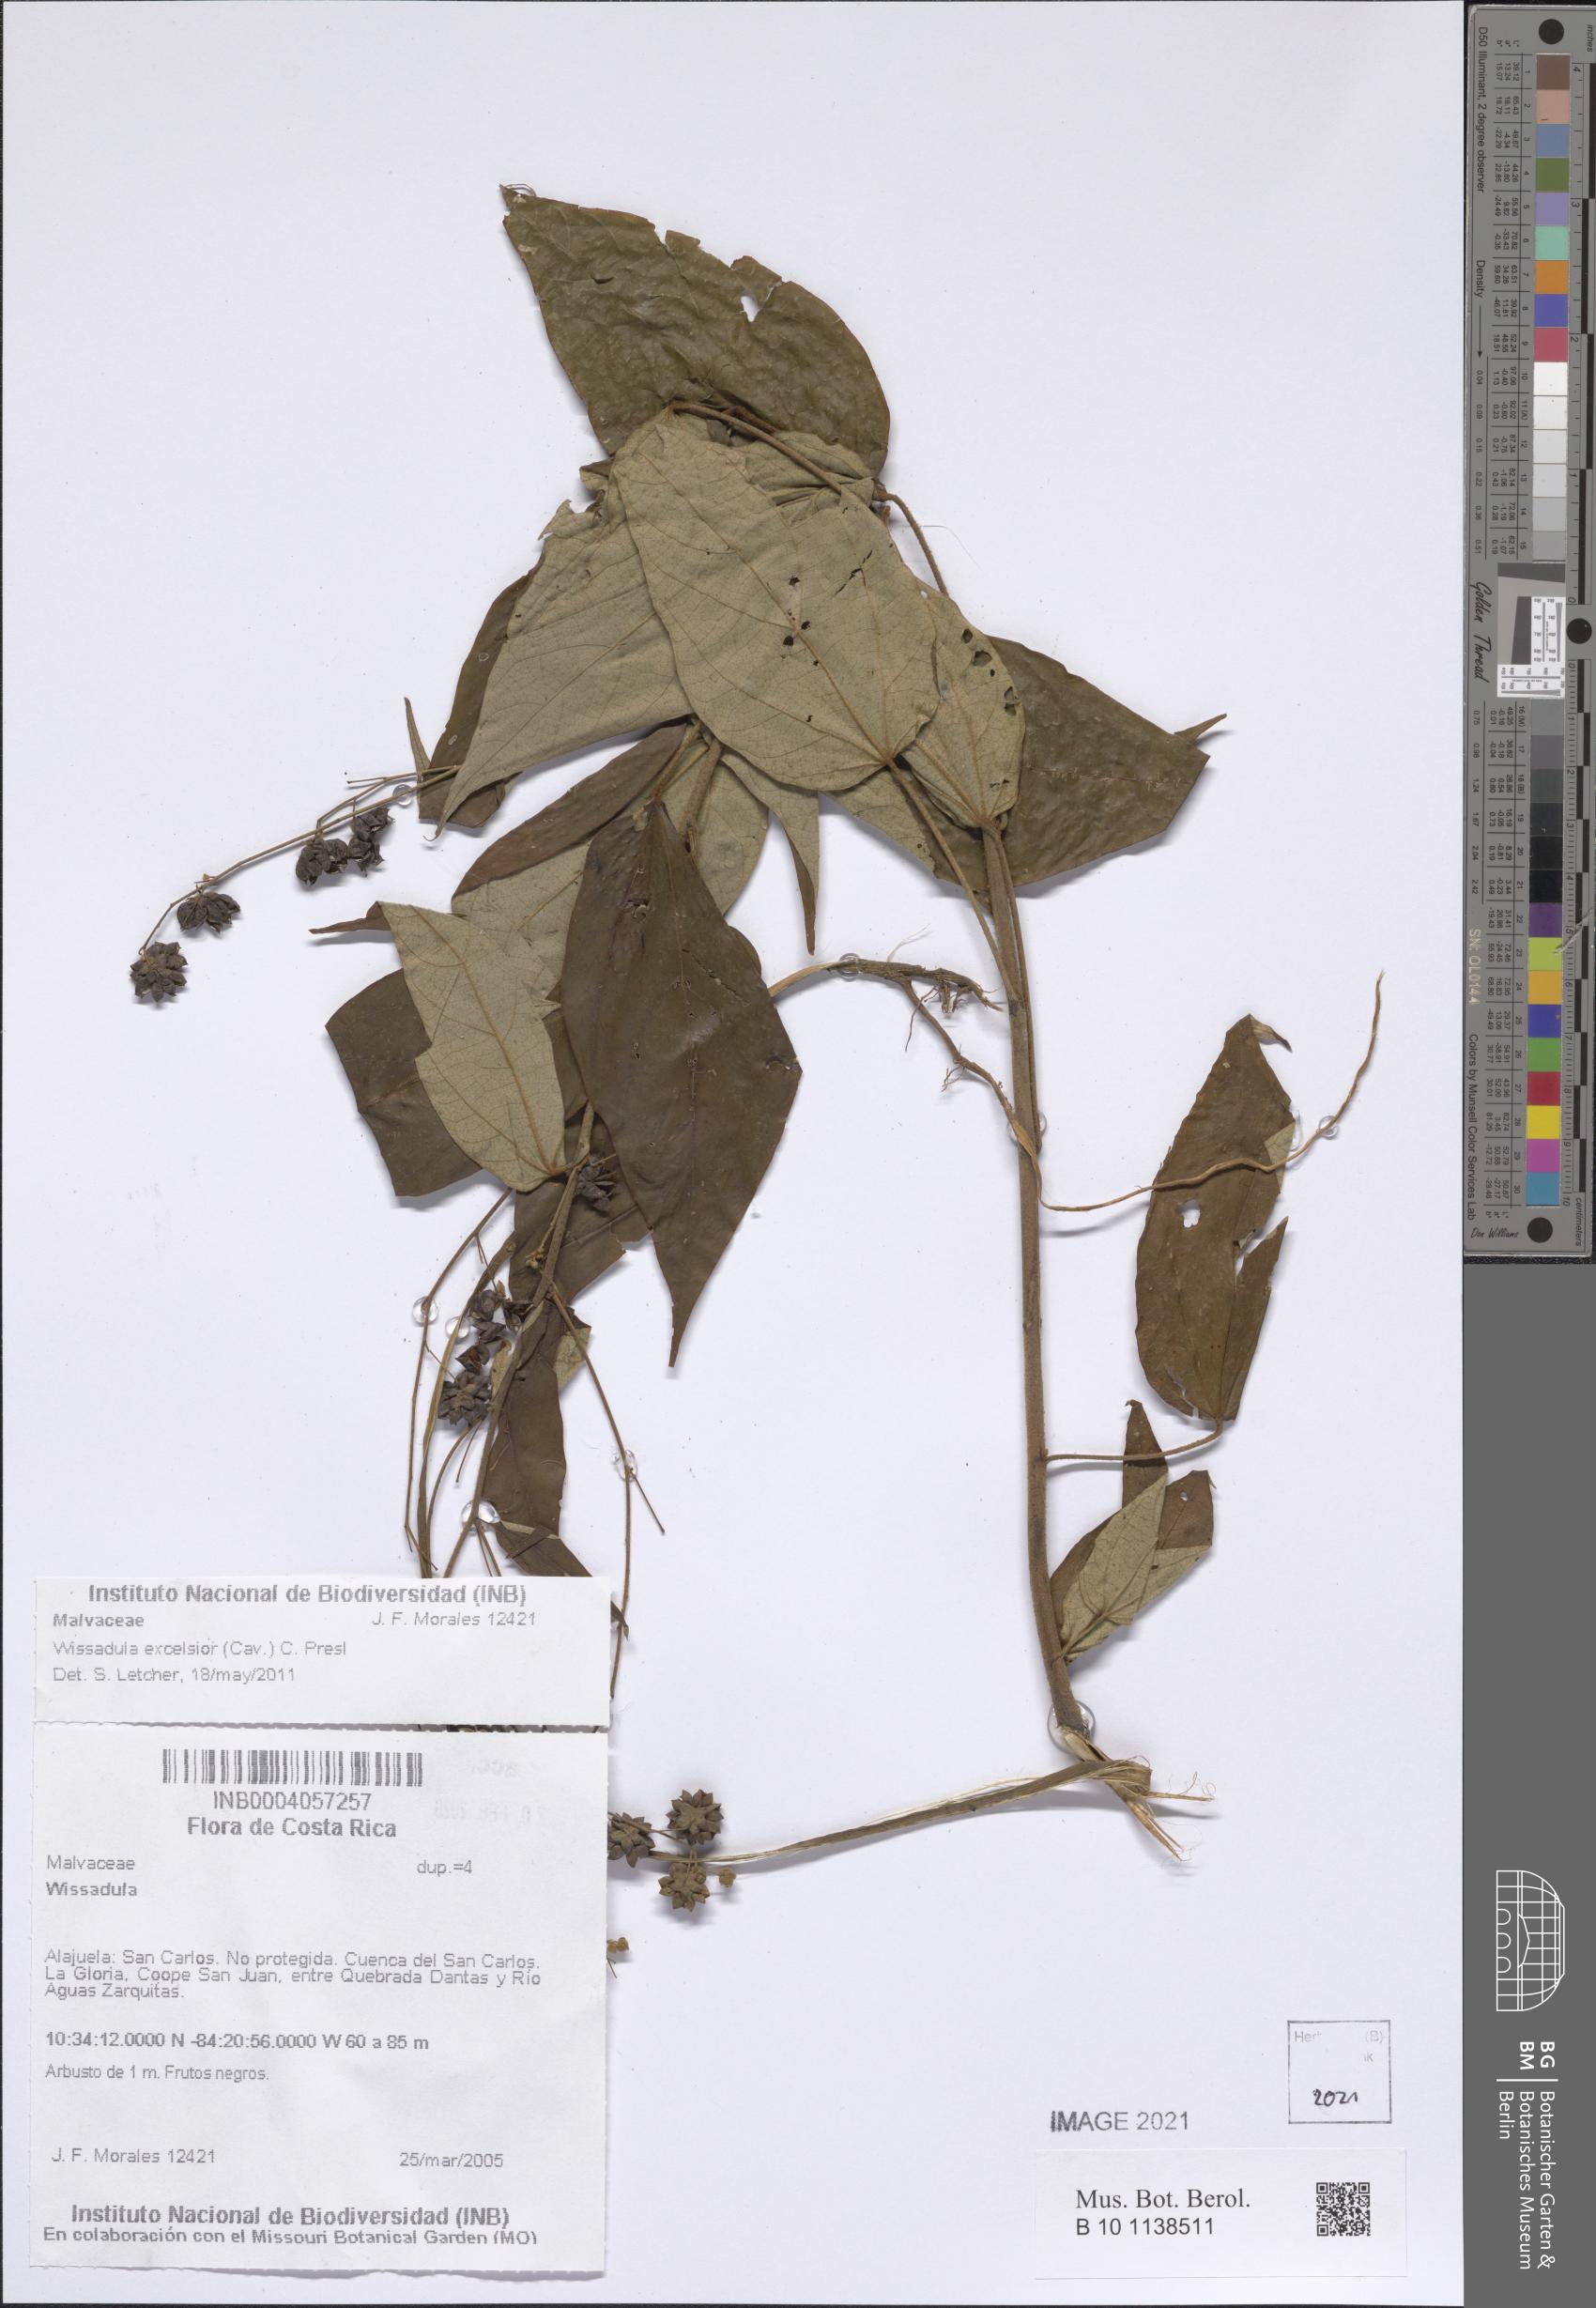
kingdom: Plantae
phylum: Tracheophyta
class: Magnoliopsida
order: Malvales
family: Malvaceae
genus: Wissadula
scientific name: Wissadula excelsior
